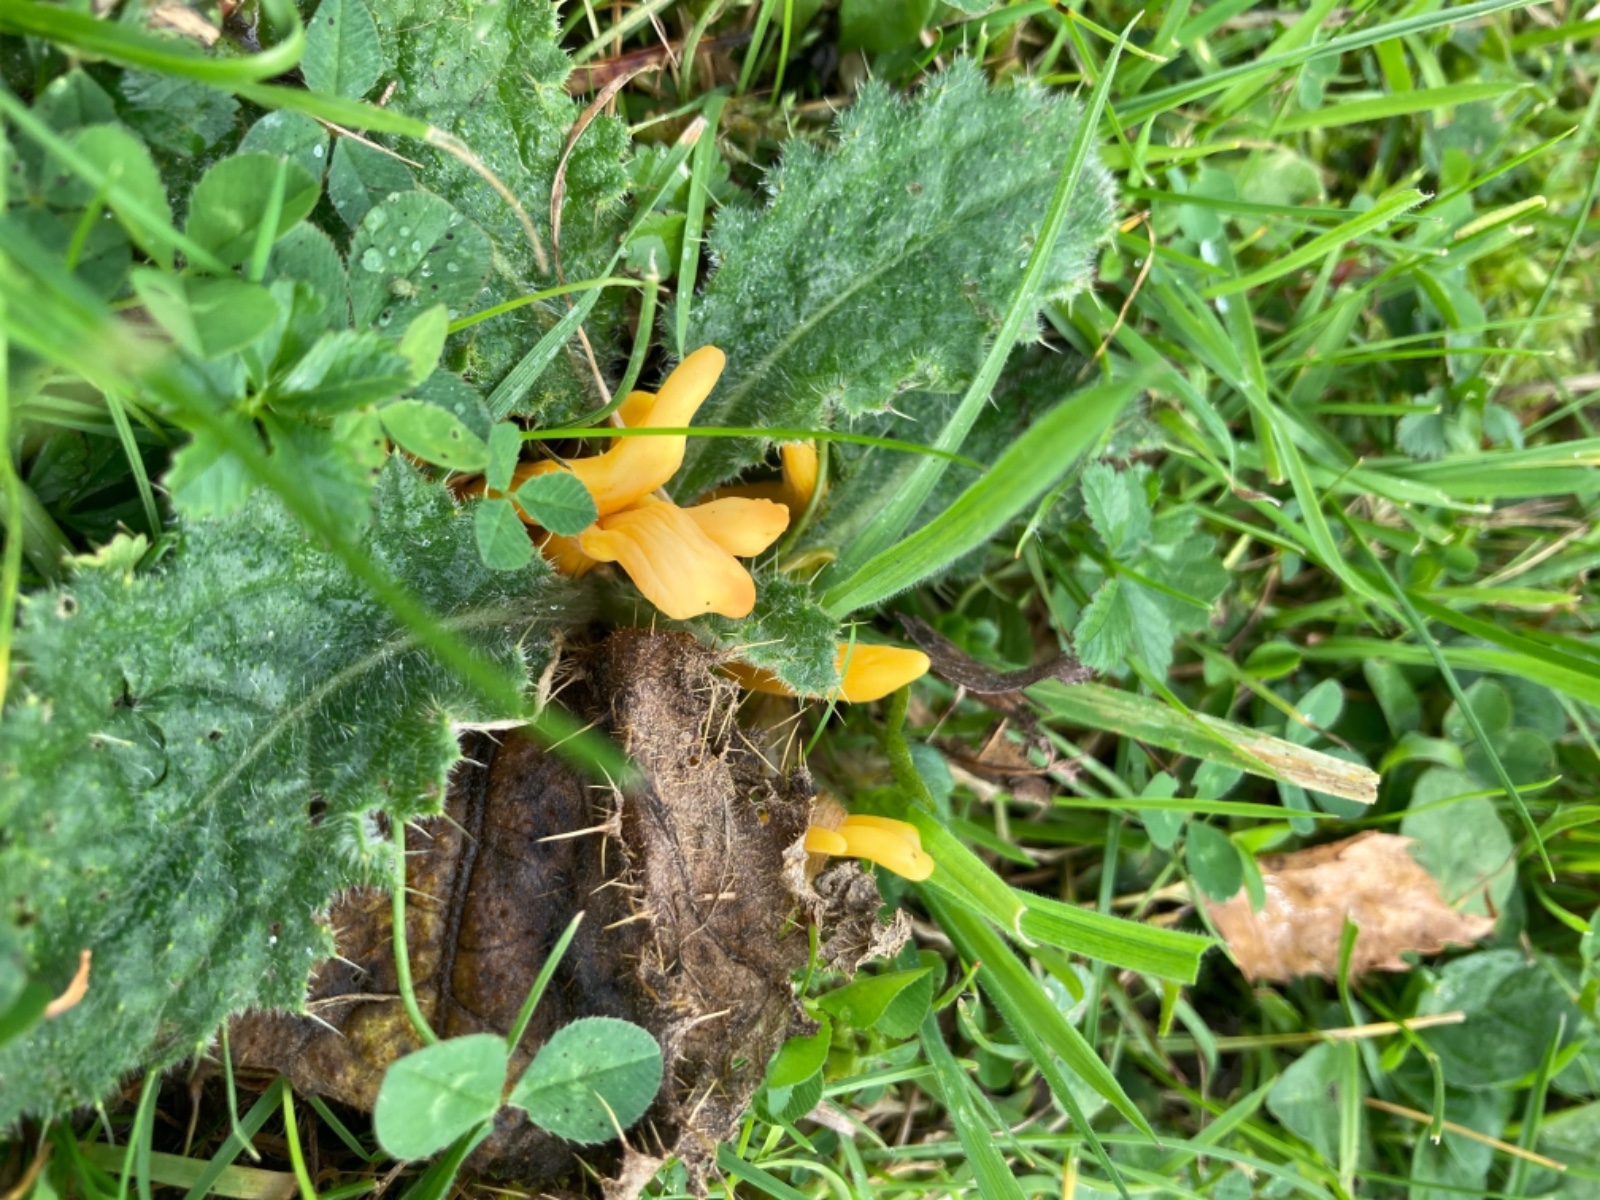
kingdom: Fungi
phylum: Basidiomycota
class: Agaricomycetes
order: Agaricales
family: Clavariaceae
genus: Clavulinopsis
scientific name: Clavulinopsis
